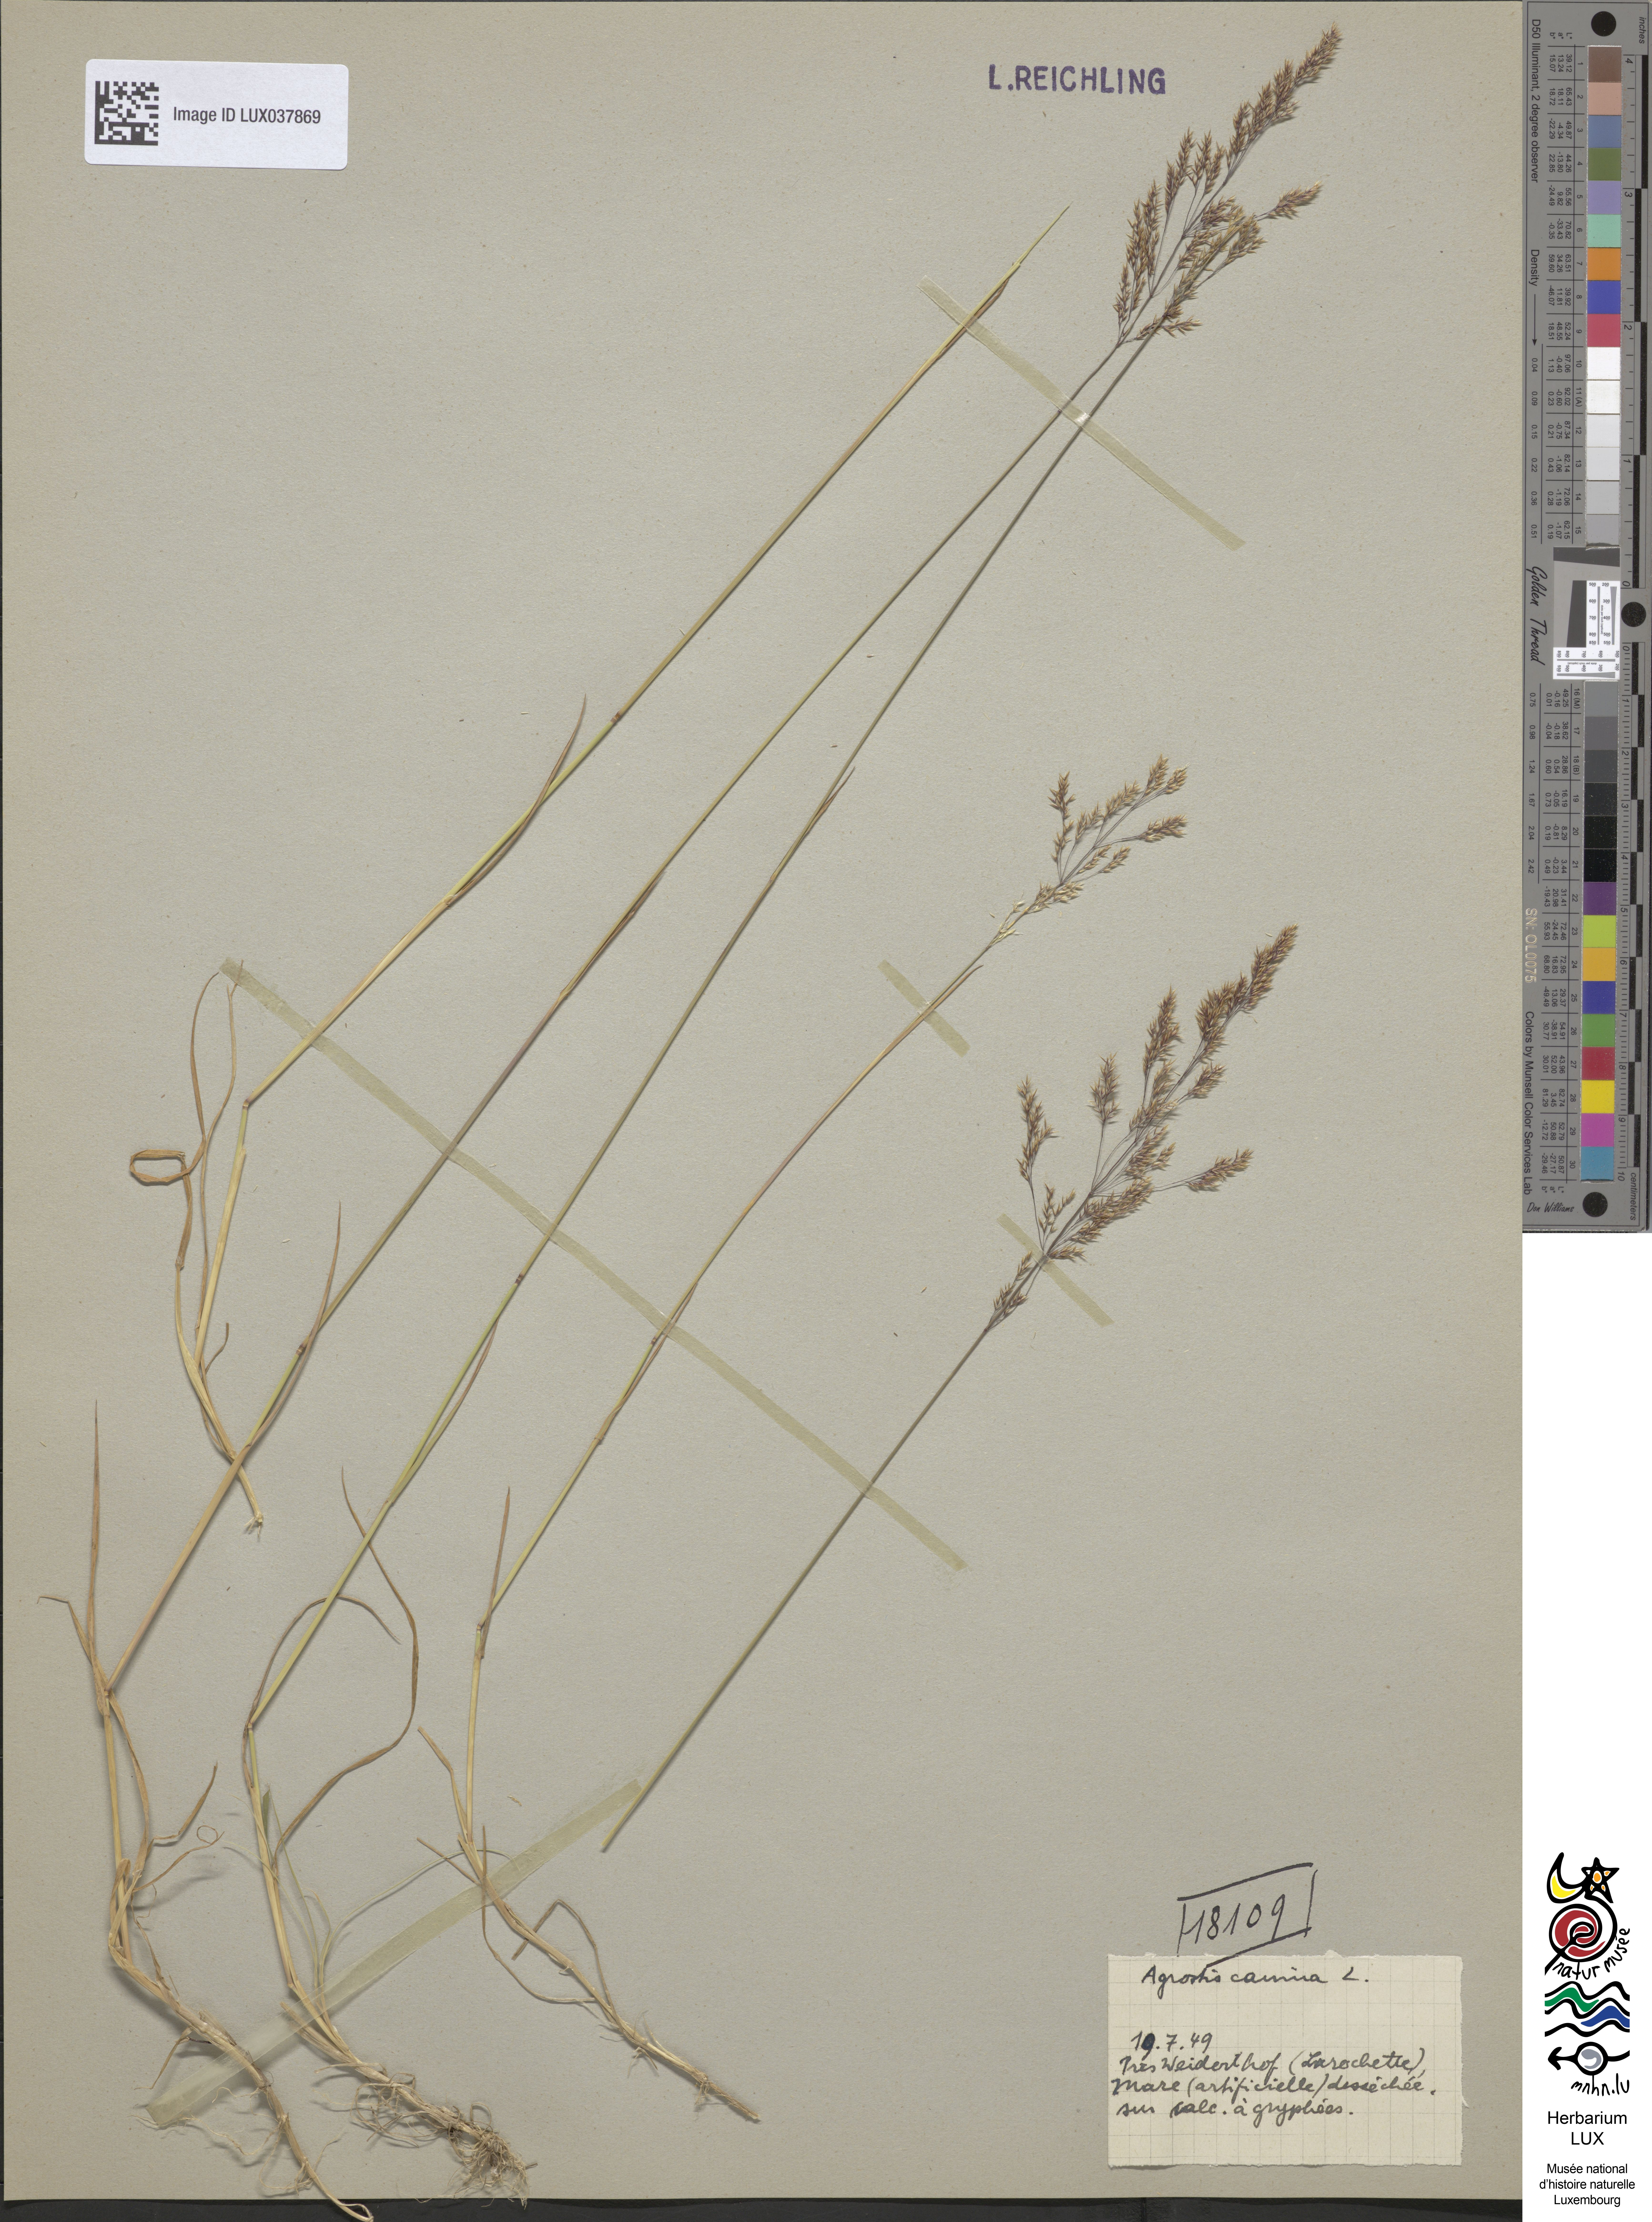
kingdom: Plantae
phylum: Tracheophyta
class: Liliopsida
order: Poales
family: Poaceae
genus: Agrostis
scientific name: Agrostis canina
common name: Velvet bent
